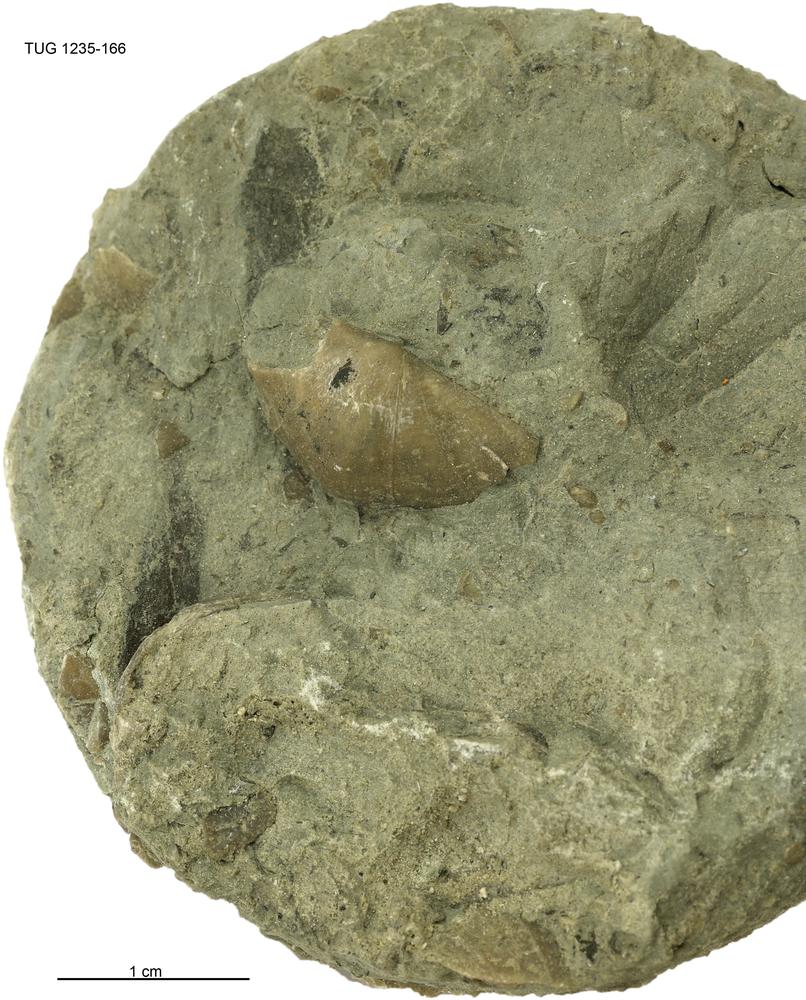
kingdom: Animalia
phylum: Brachiopoda
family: Oldhaminidae
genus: Eoplectodonta
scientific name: Eoplectodonta
